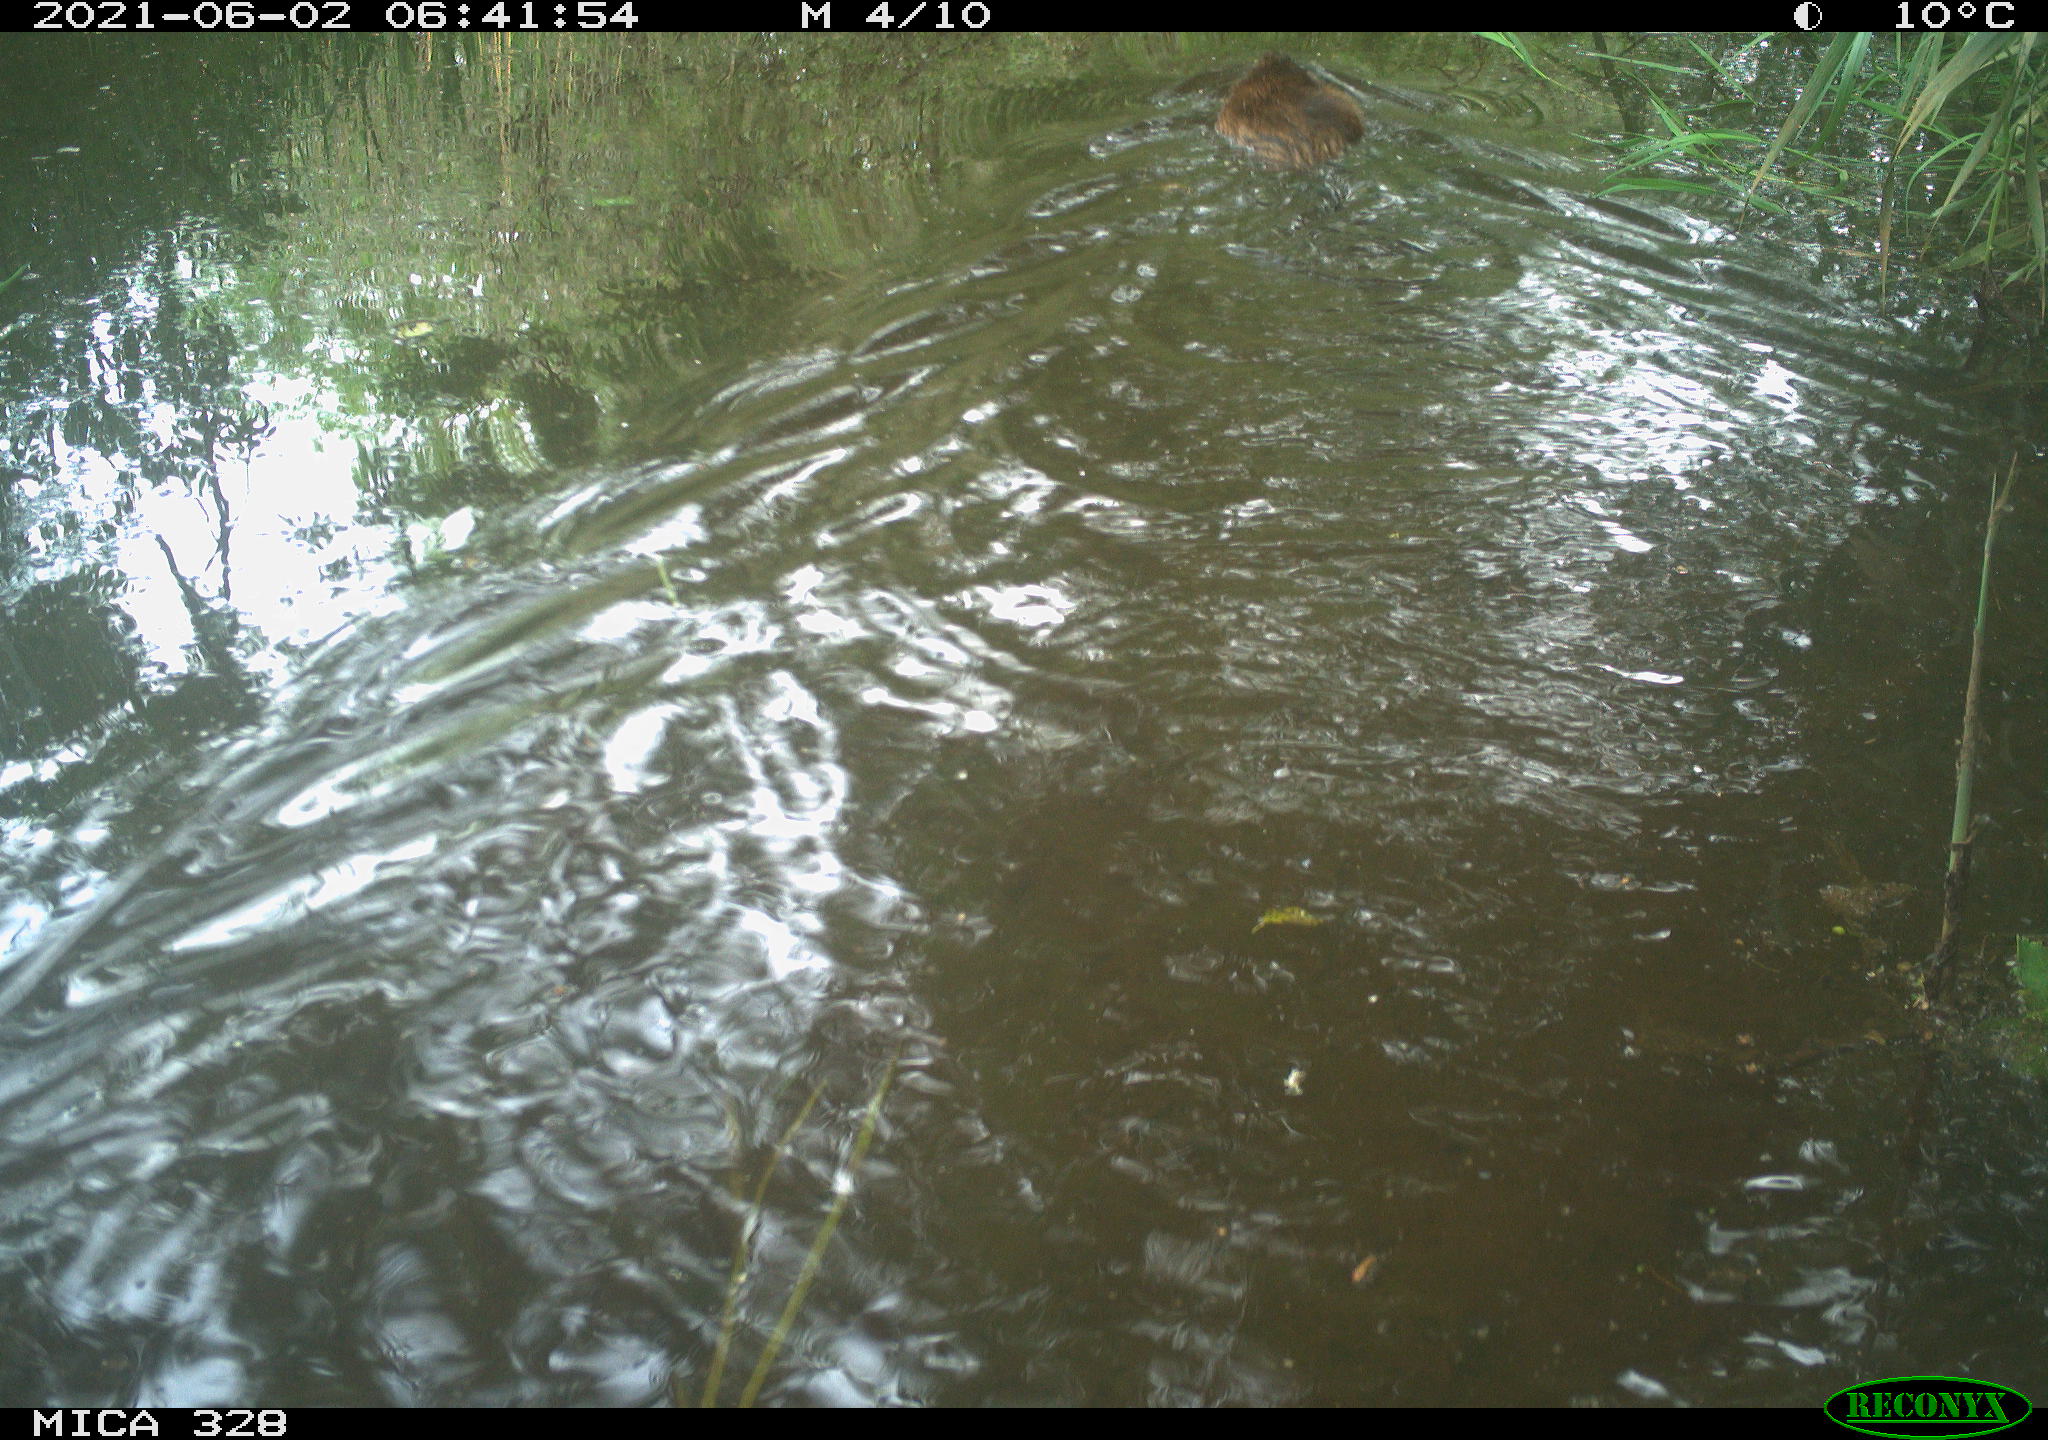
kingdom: Animalia
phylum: Chordata
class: Mammalia
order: Rodentia
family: Cricetidae
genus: Ondatra
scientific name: Ondatra zibethicus
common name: Muskrat
